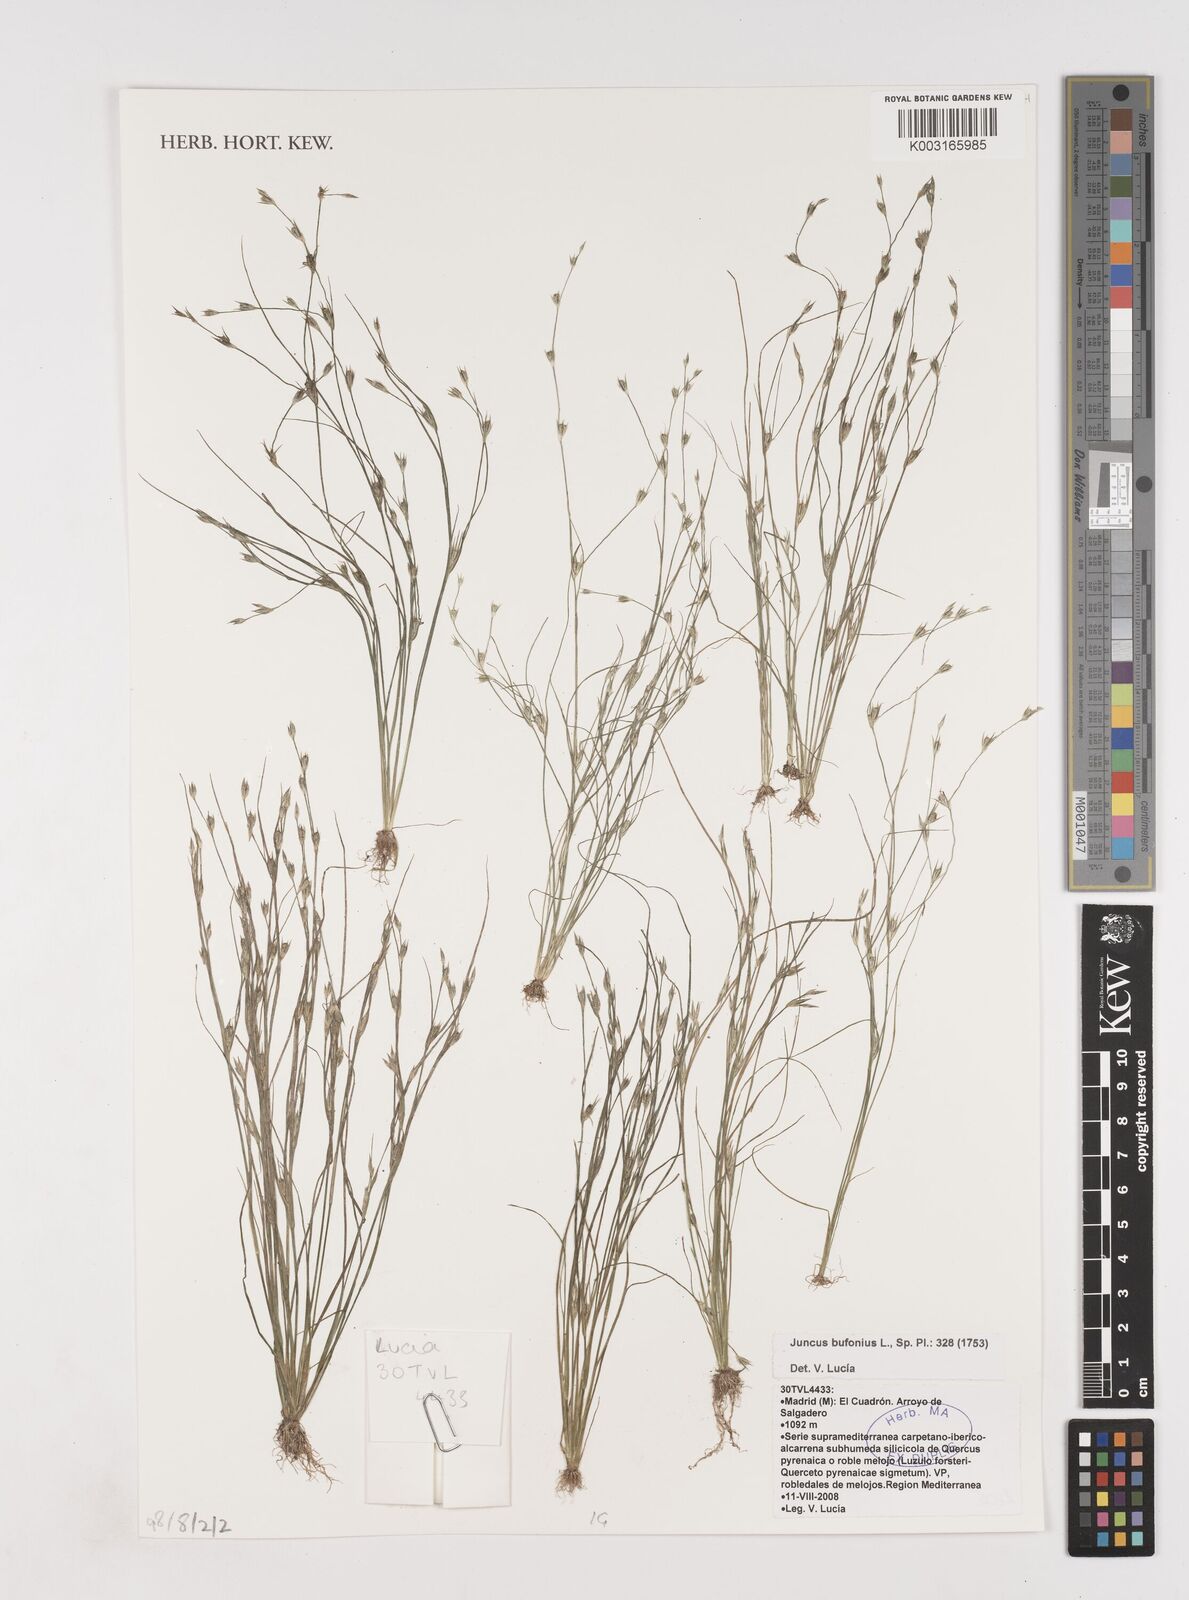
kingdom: Plantae
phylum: Tracheophyta
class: Liliopsida
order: Poales
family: Juncaceae
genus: Juncus
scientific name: Juncus bufonius
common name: Toad rush
